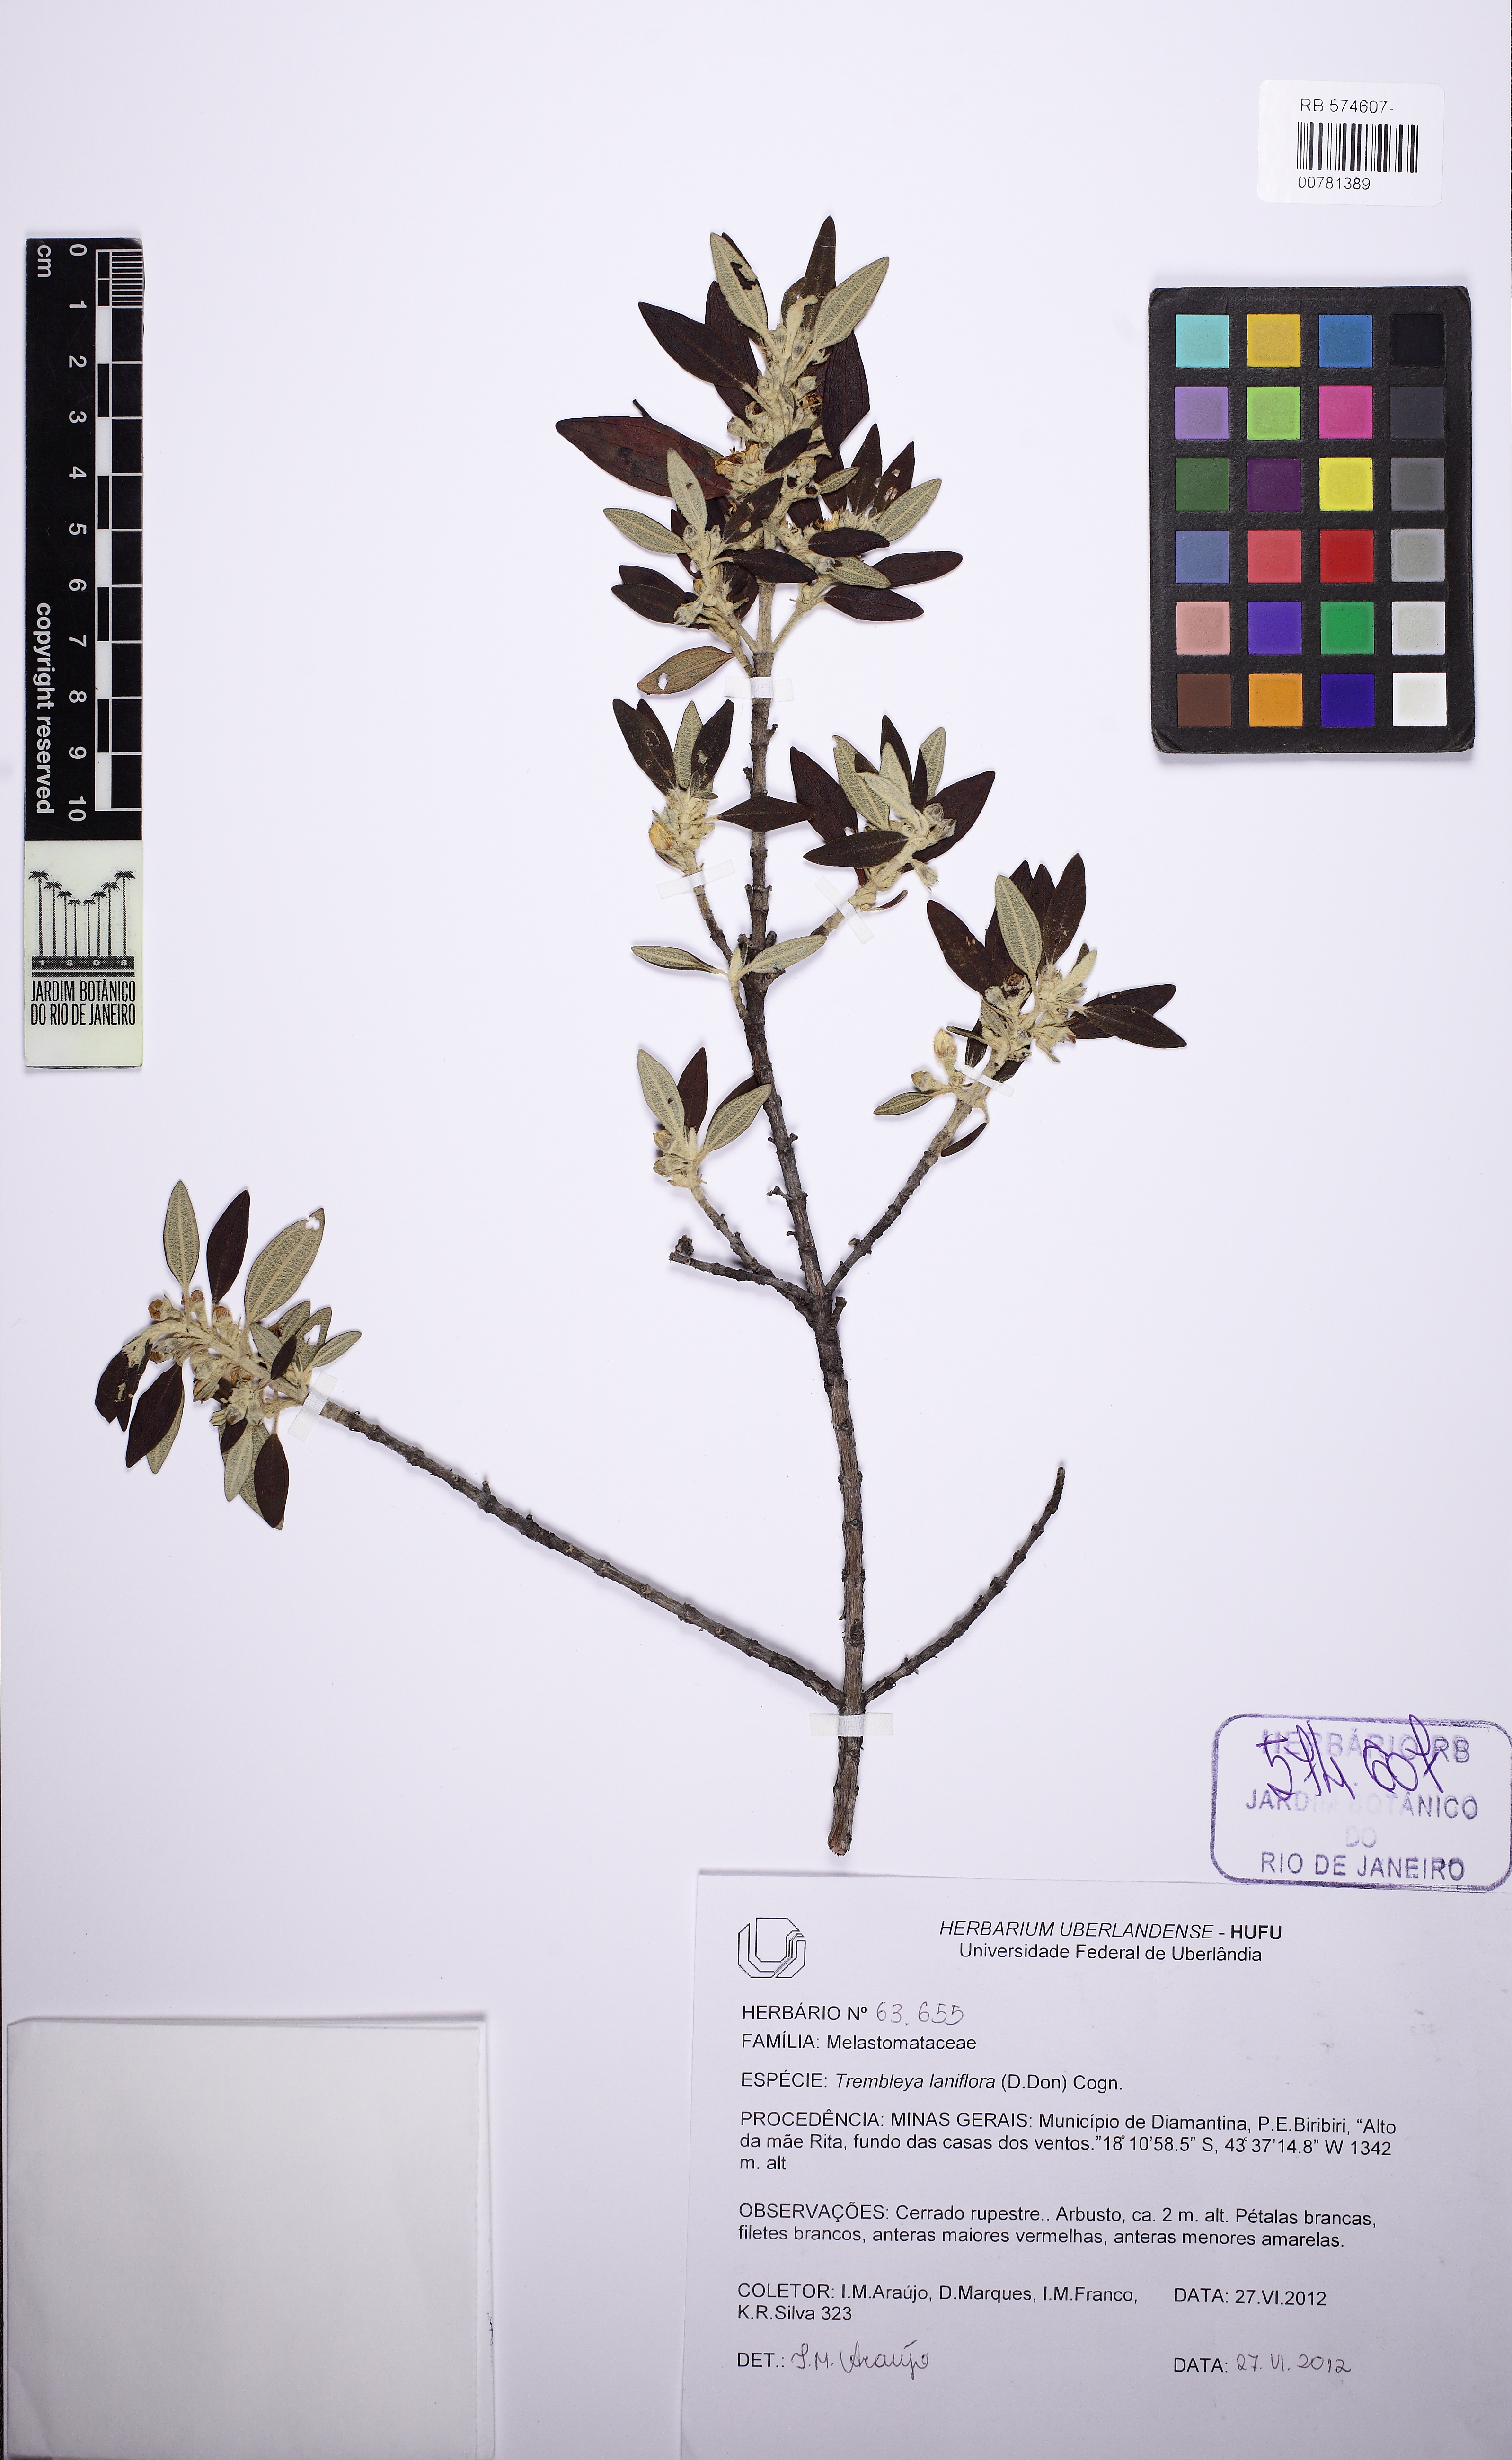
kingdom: Plantae
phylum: Tracheophyta
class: Magnoliopsida
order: Myrtales
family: Melastomataceae
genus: Microlicia
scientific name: Microlicia laniflora
